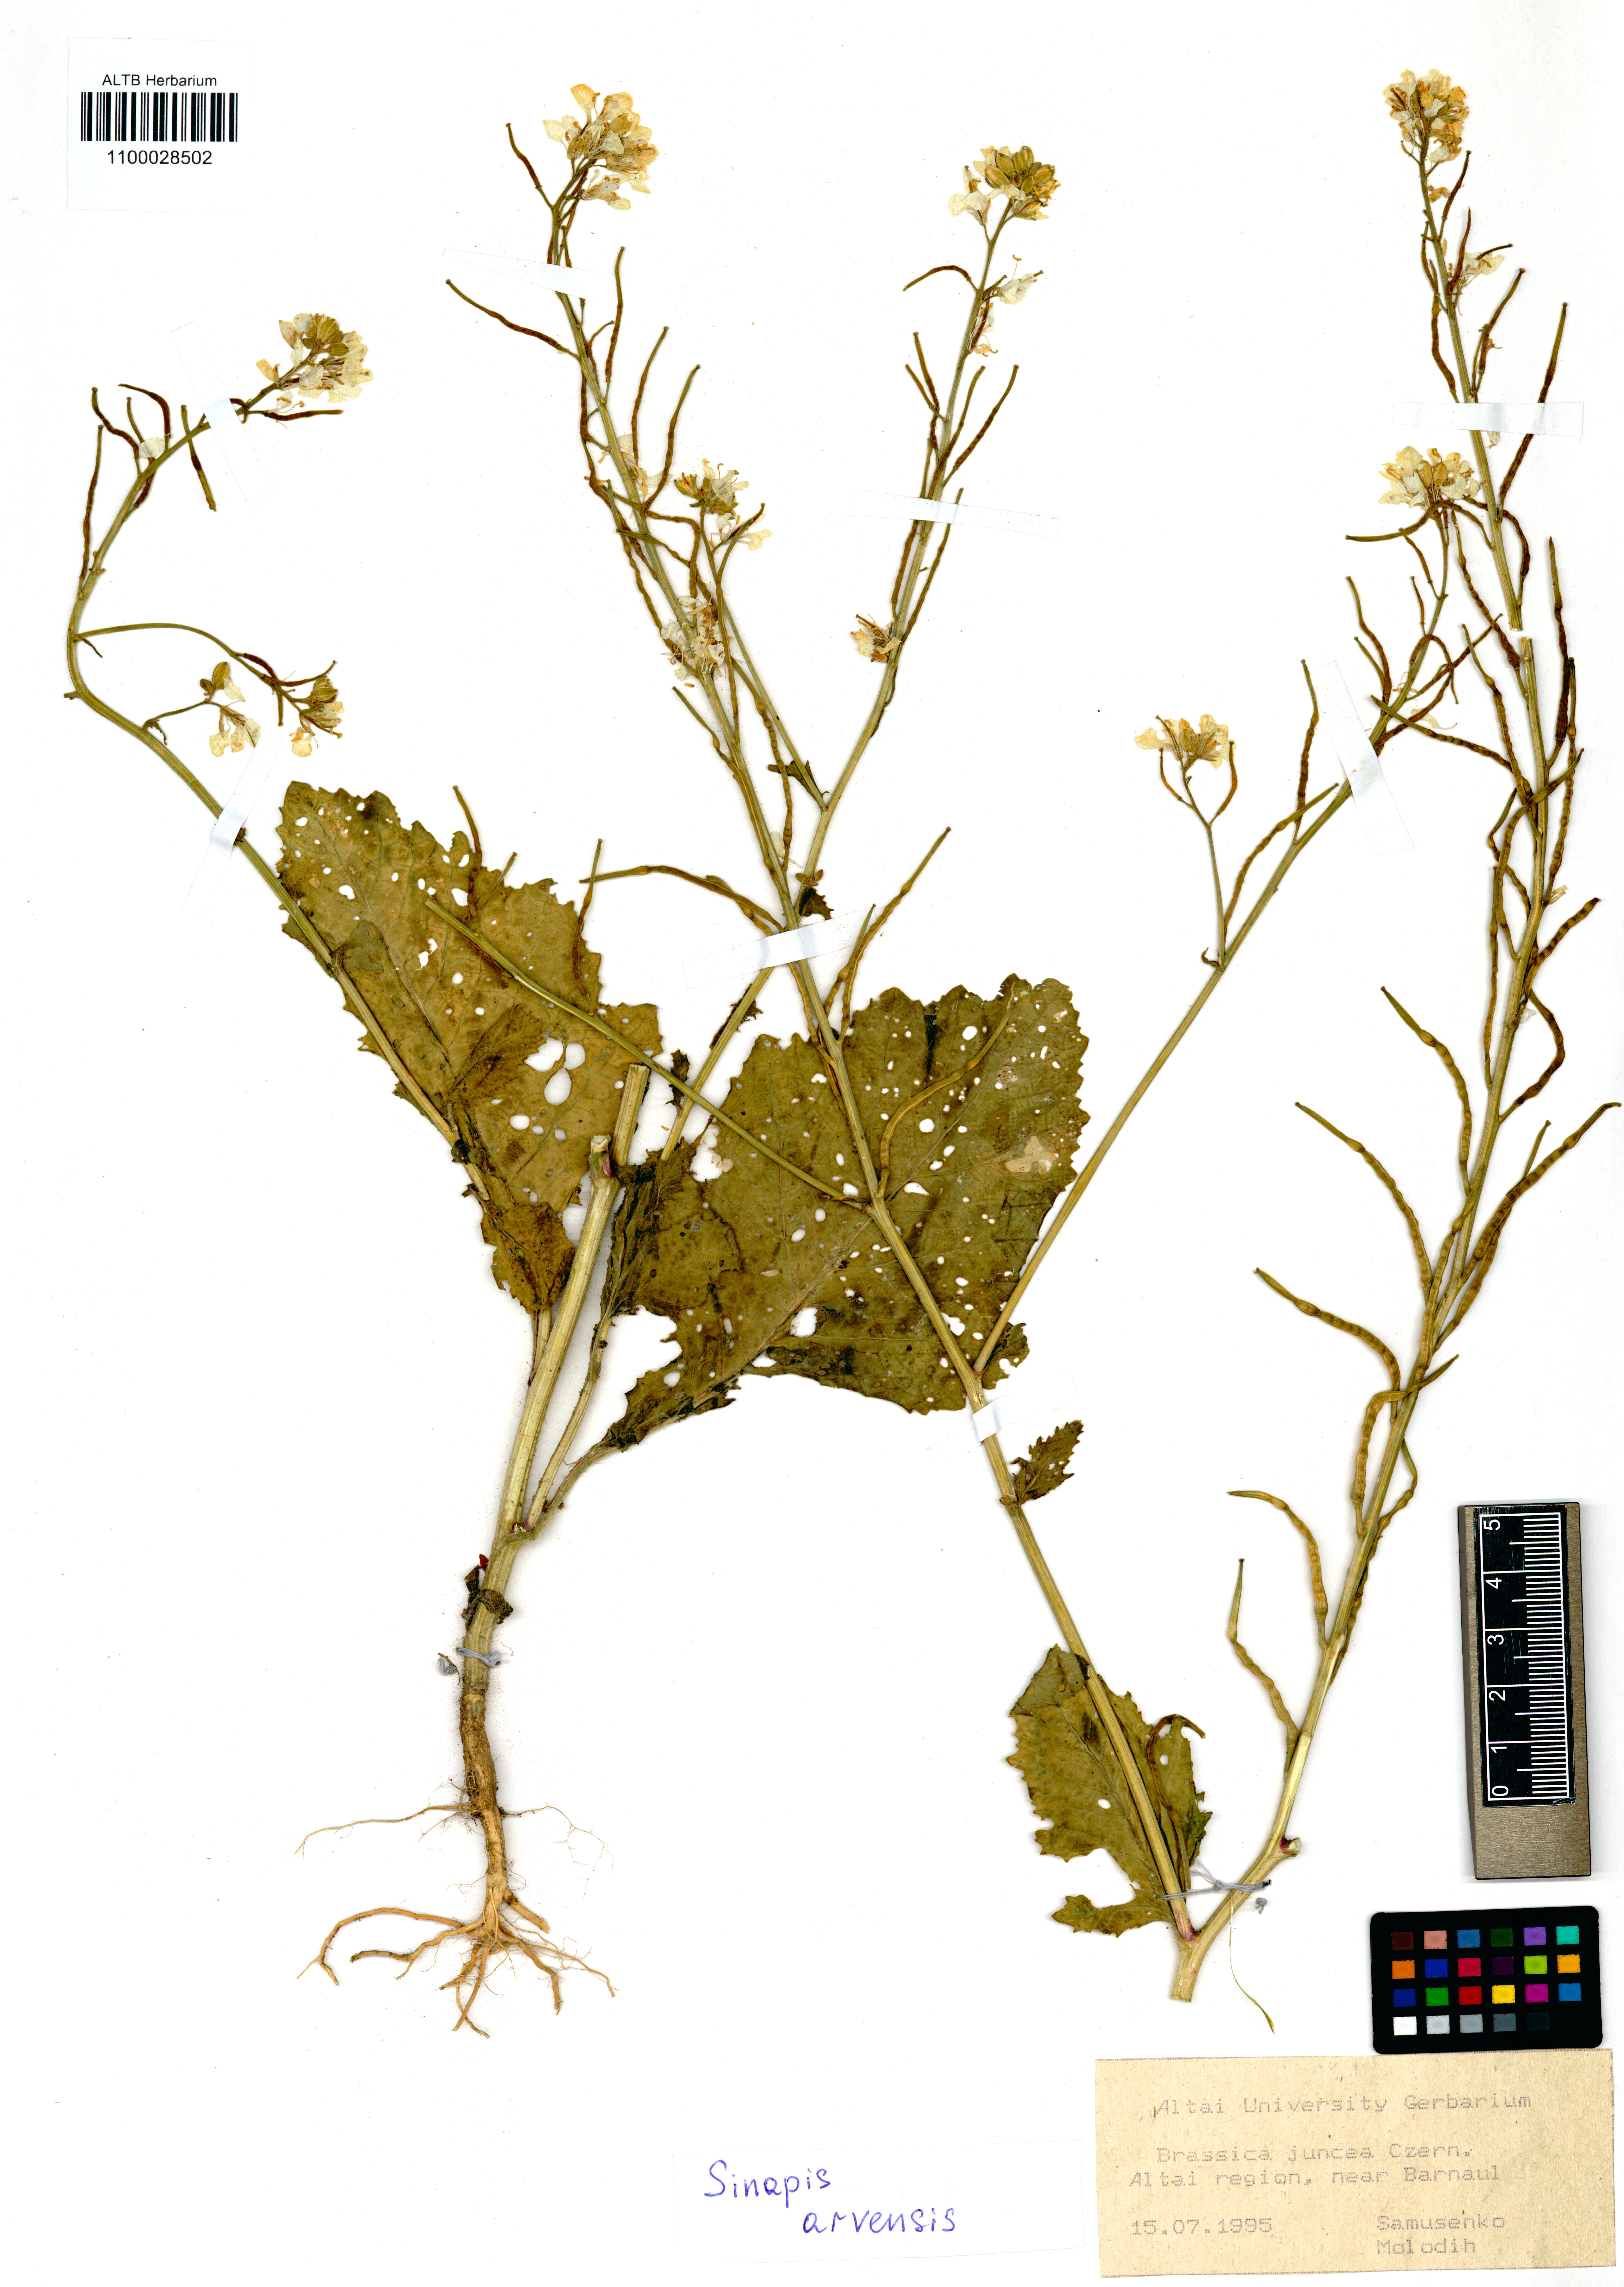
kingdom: Plantae
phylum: Tracheophyta
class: Magnoliopsida
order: Brassicales
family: Brassicaceae
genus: Sinapis
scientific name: Sinapis arvensis
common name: Charlock
